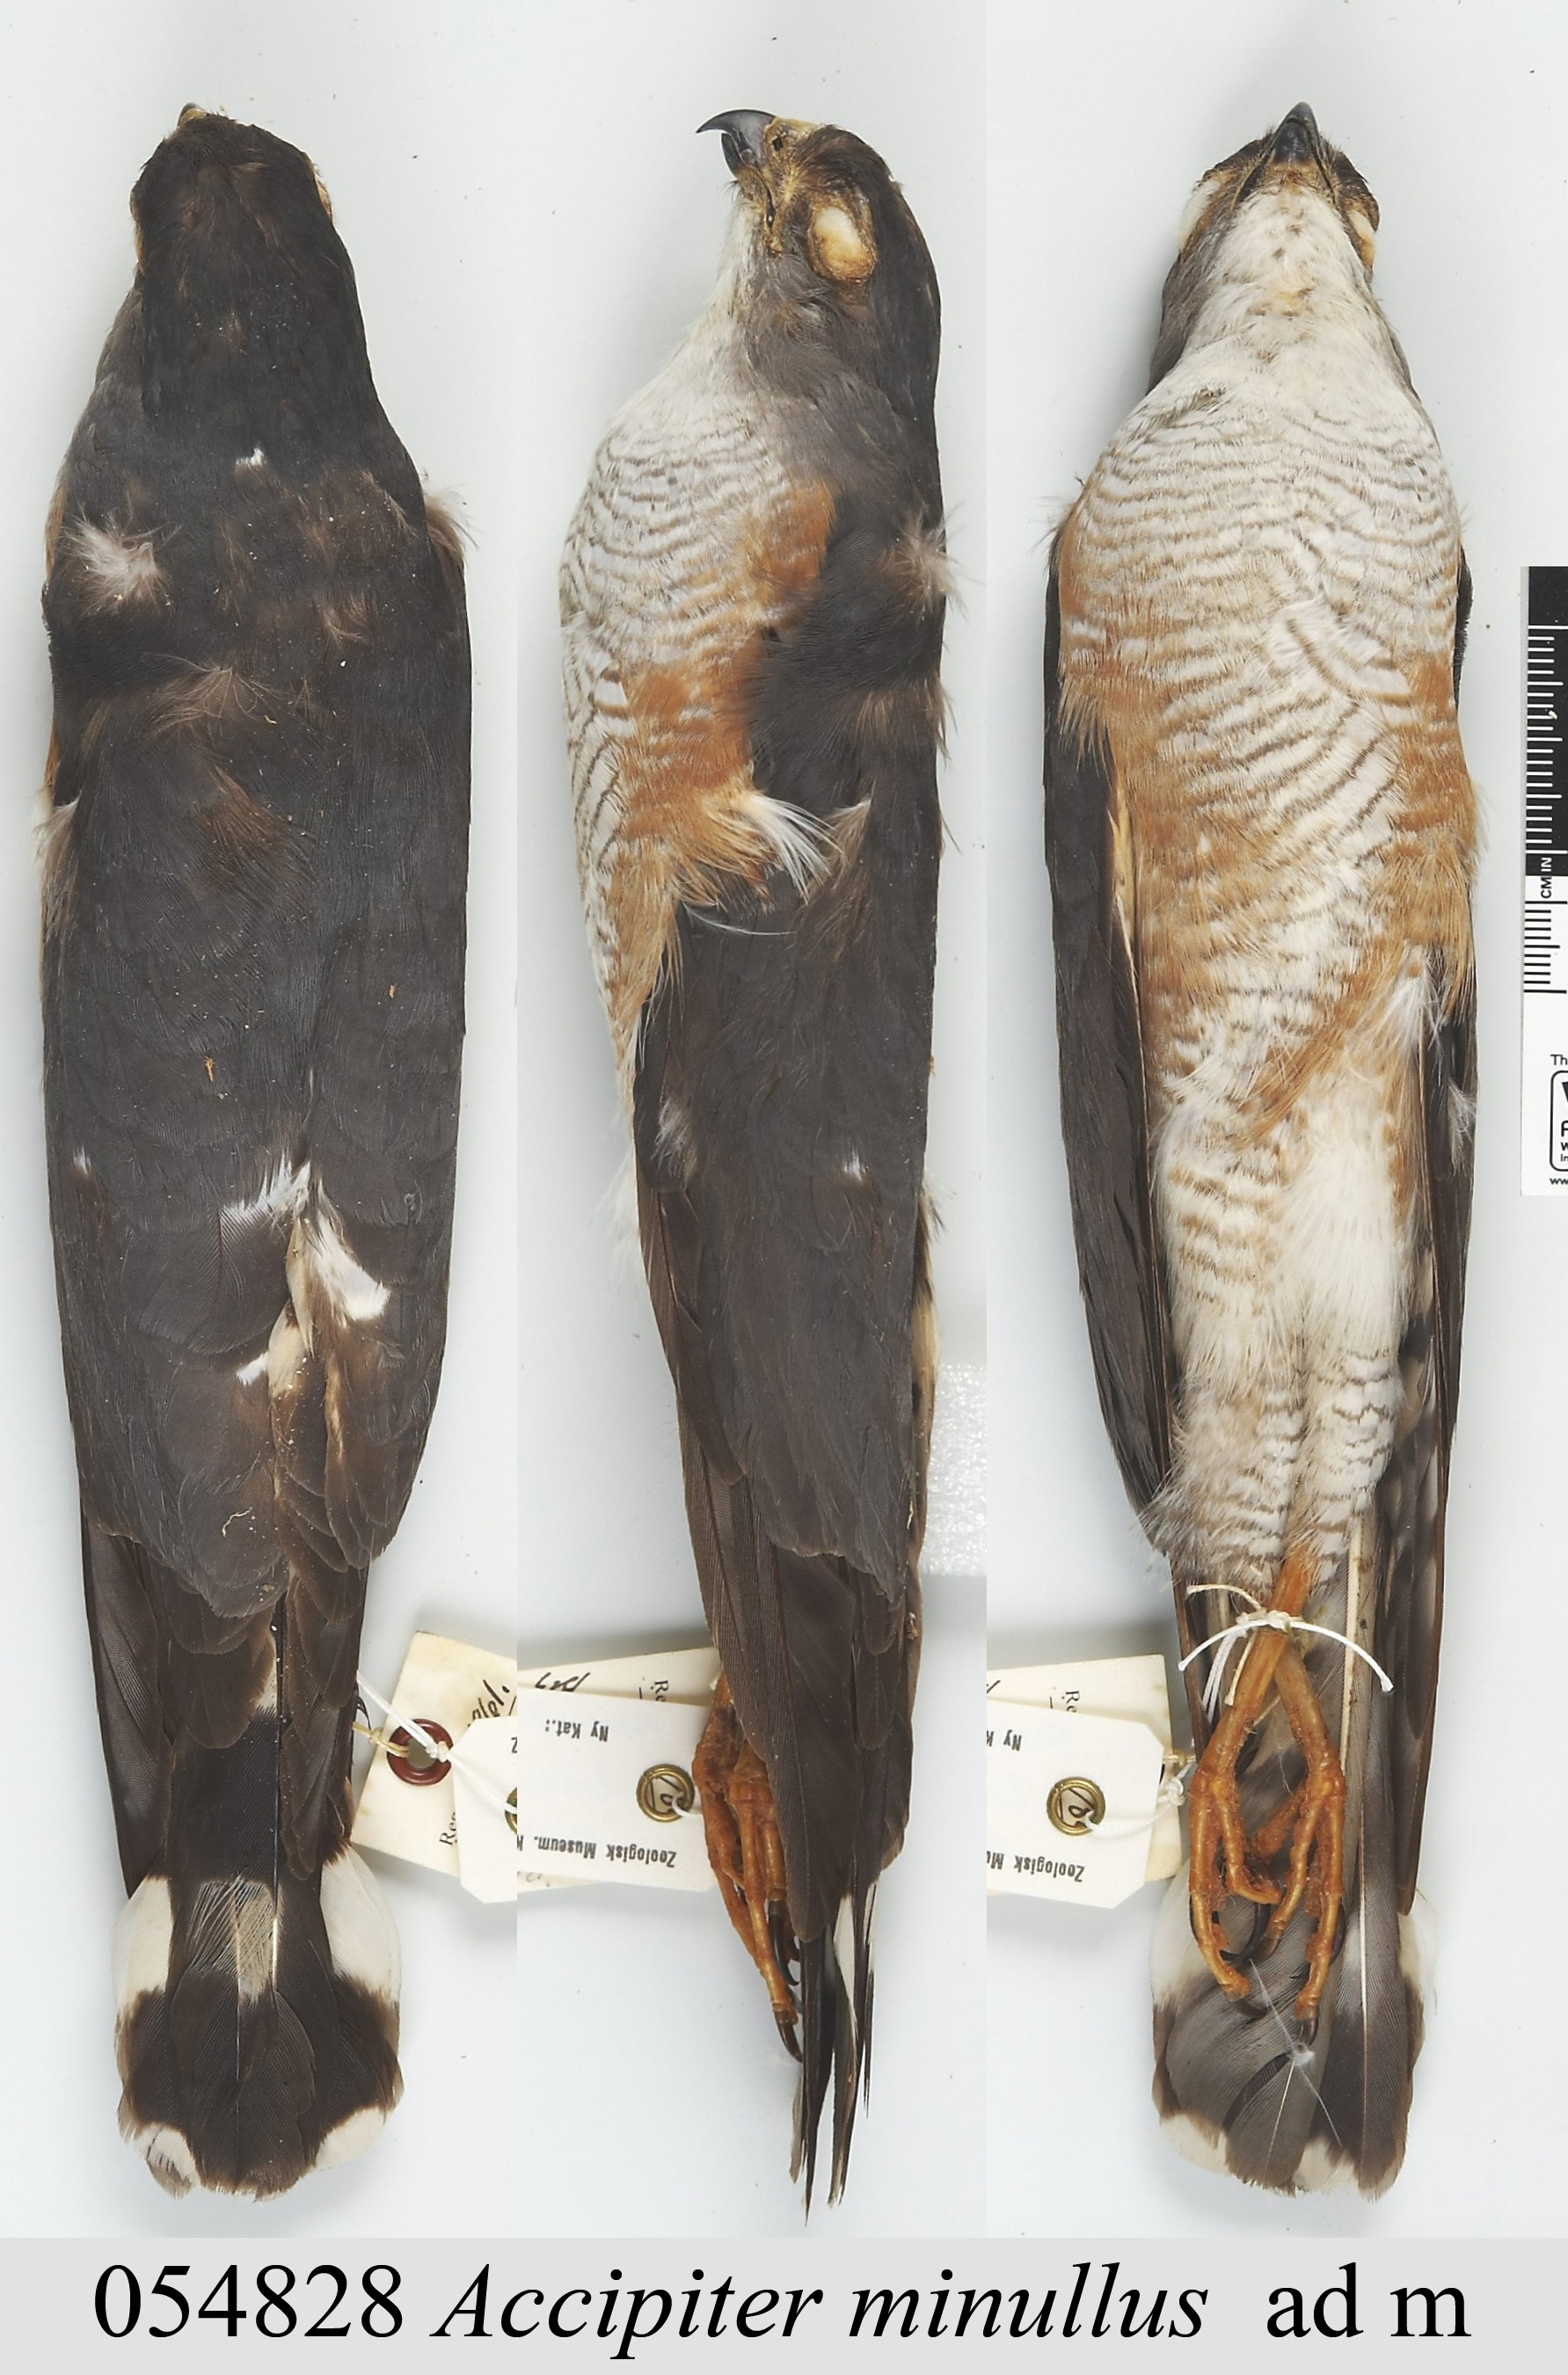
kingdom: Animalia
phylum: Chordata
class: Aves
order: Accipitriformes
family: Accipitridae
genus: Accipiter
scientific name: Accipiter minullus
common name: Little sparrowhawk
